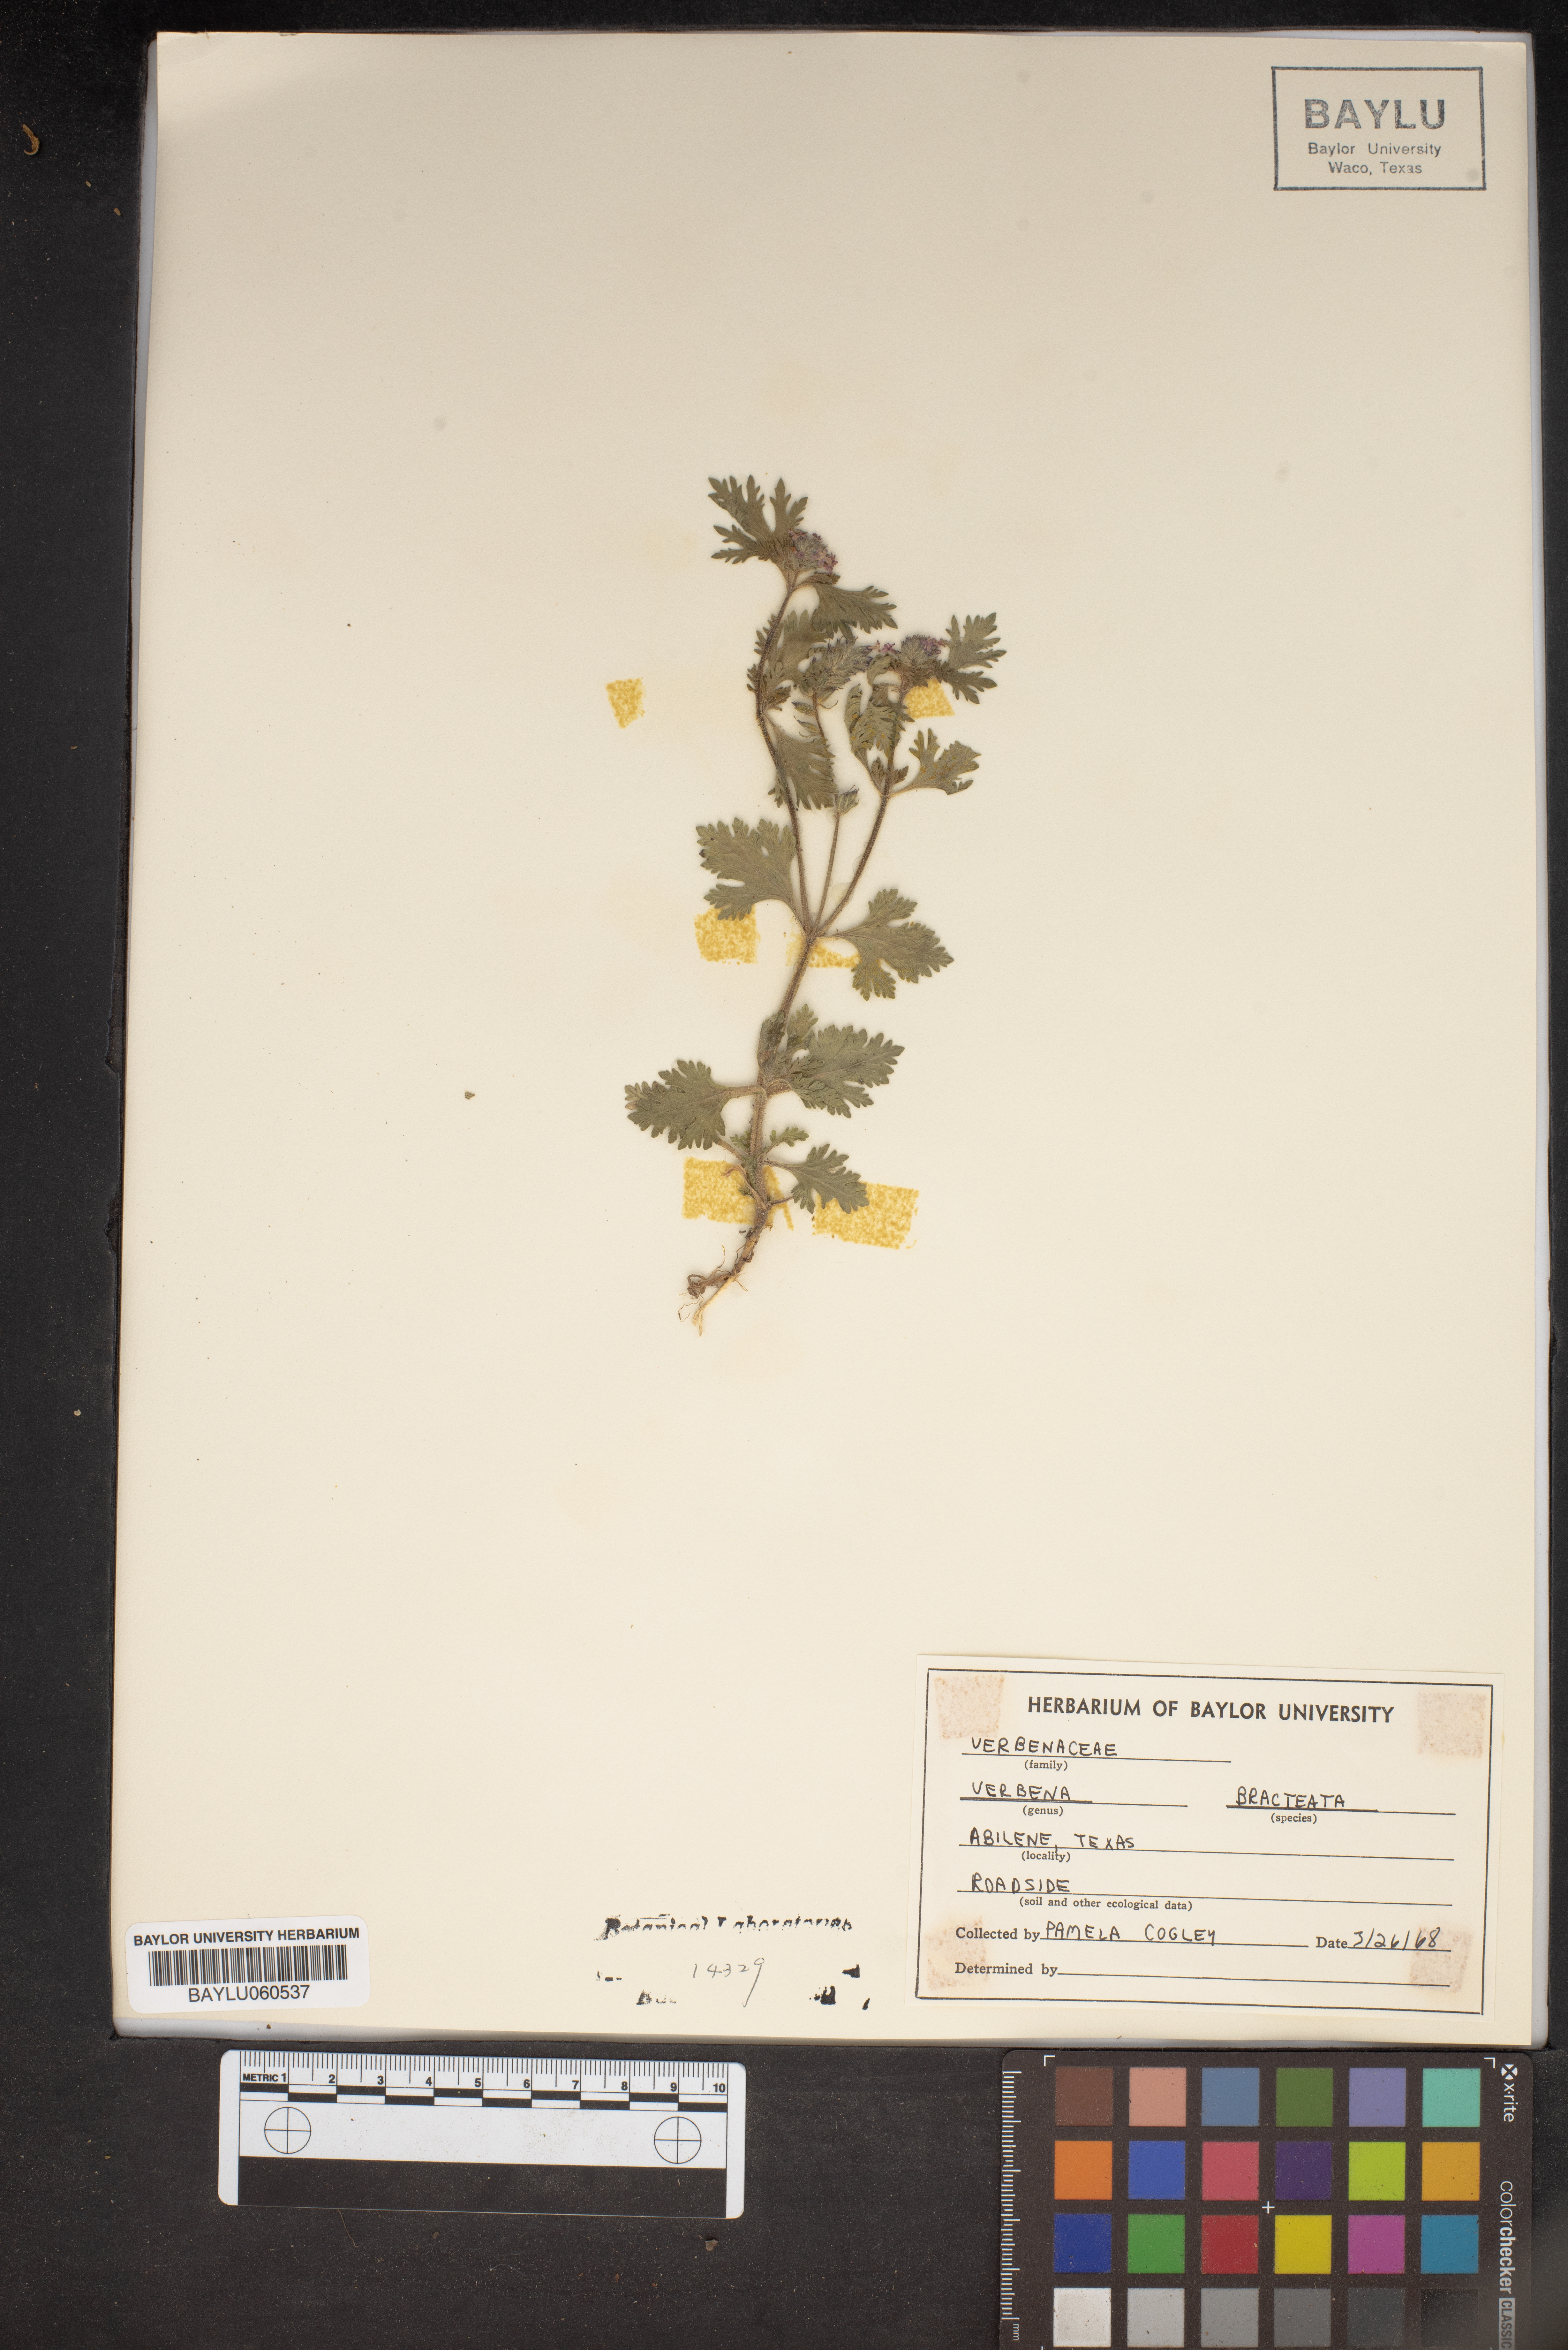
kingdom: Plantae
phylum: Tracheophyta
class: Magnoliopsida
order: Lamiales
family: Verbenaceae
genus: Verbena
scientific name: Verbena bracteata
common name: Bracted vervain
